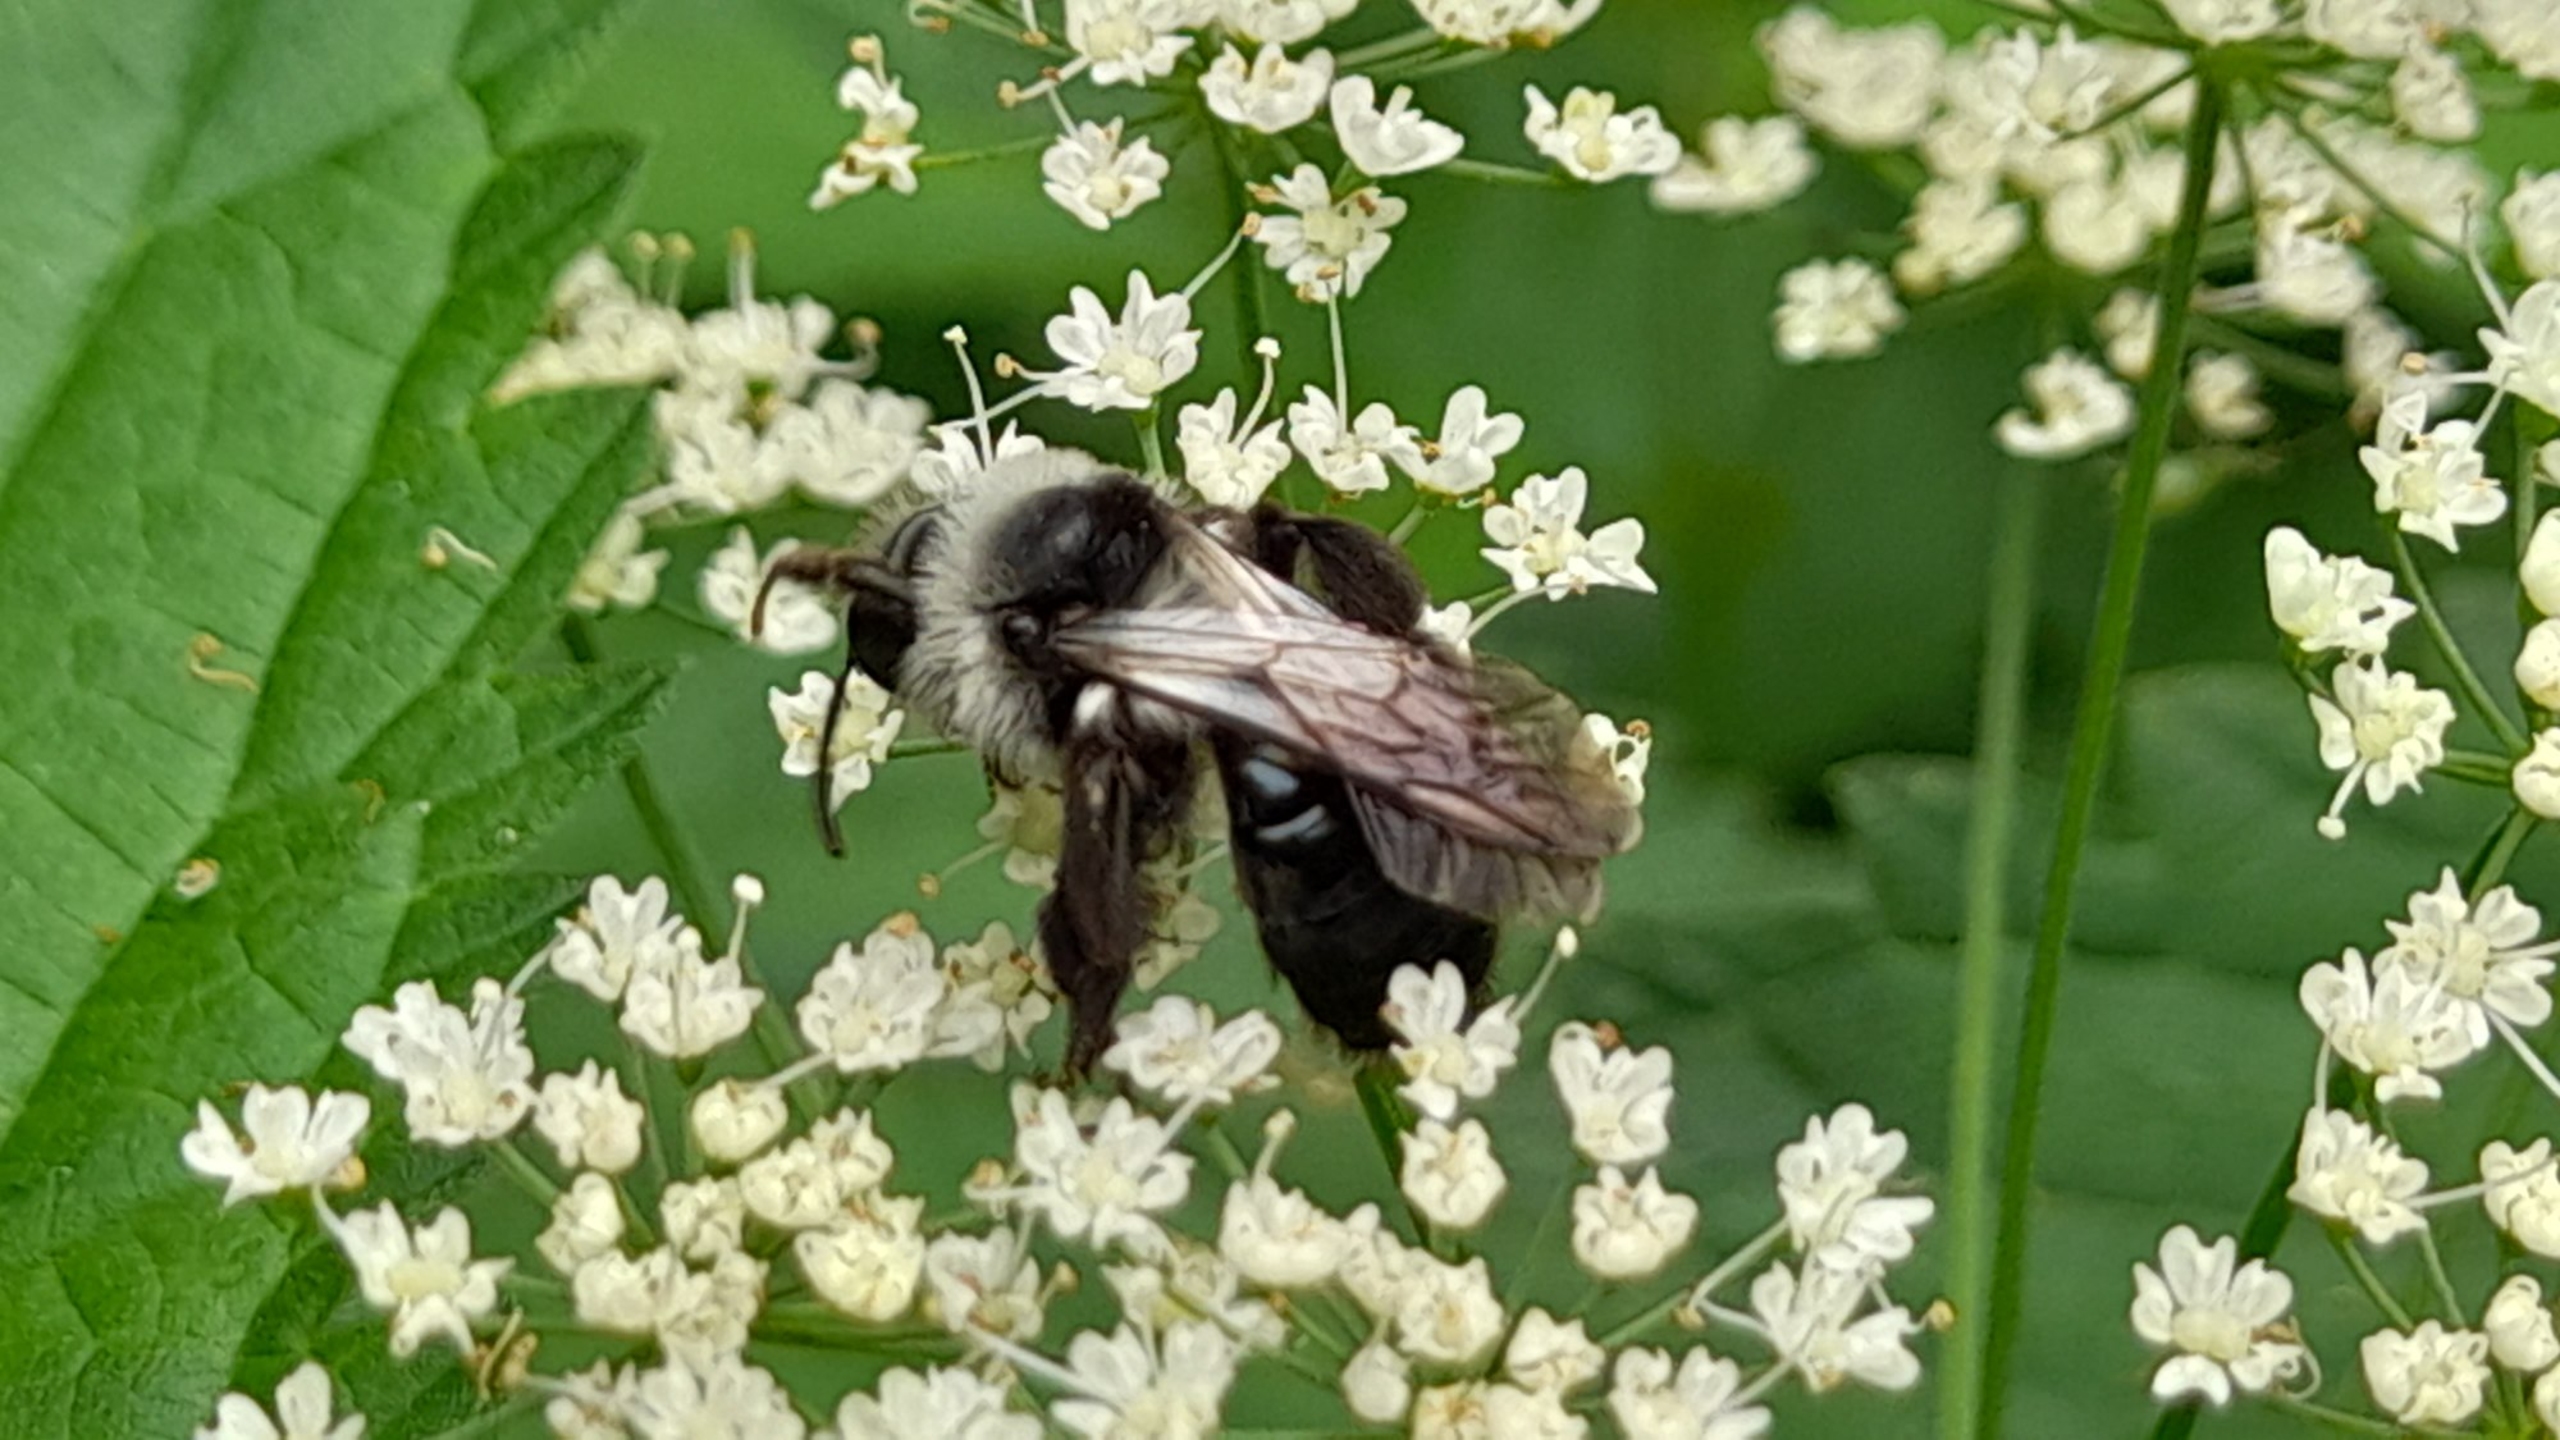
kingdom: Animalia
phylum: Arthropoda
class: Insecta
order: Hymenoptera
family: Andrenidae
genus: Andrena
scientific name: Andrena cineraria
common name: Sorthvid jordbi
